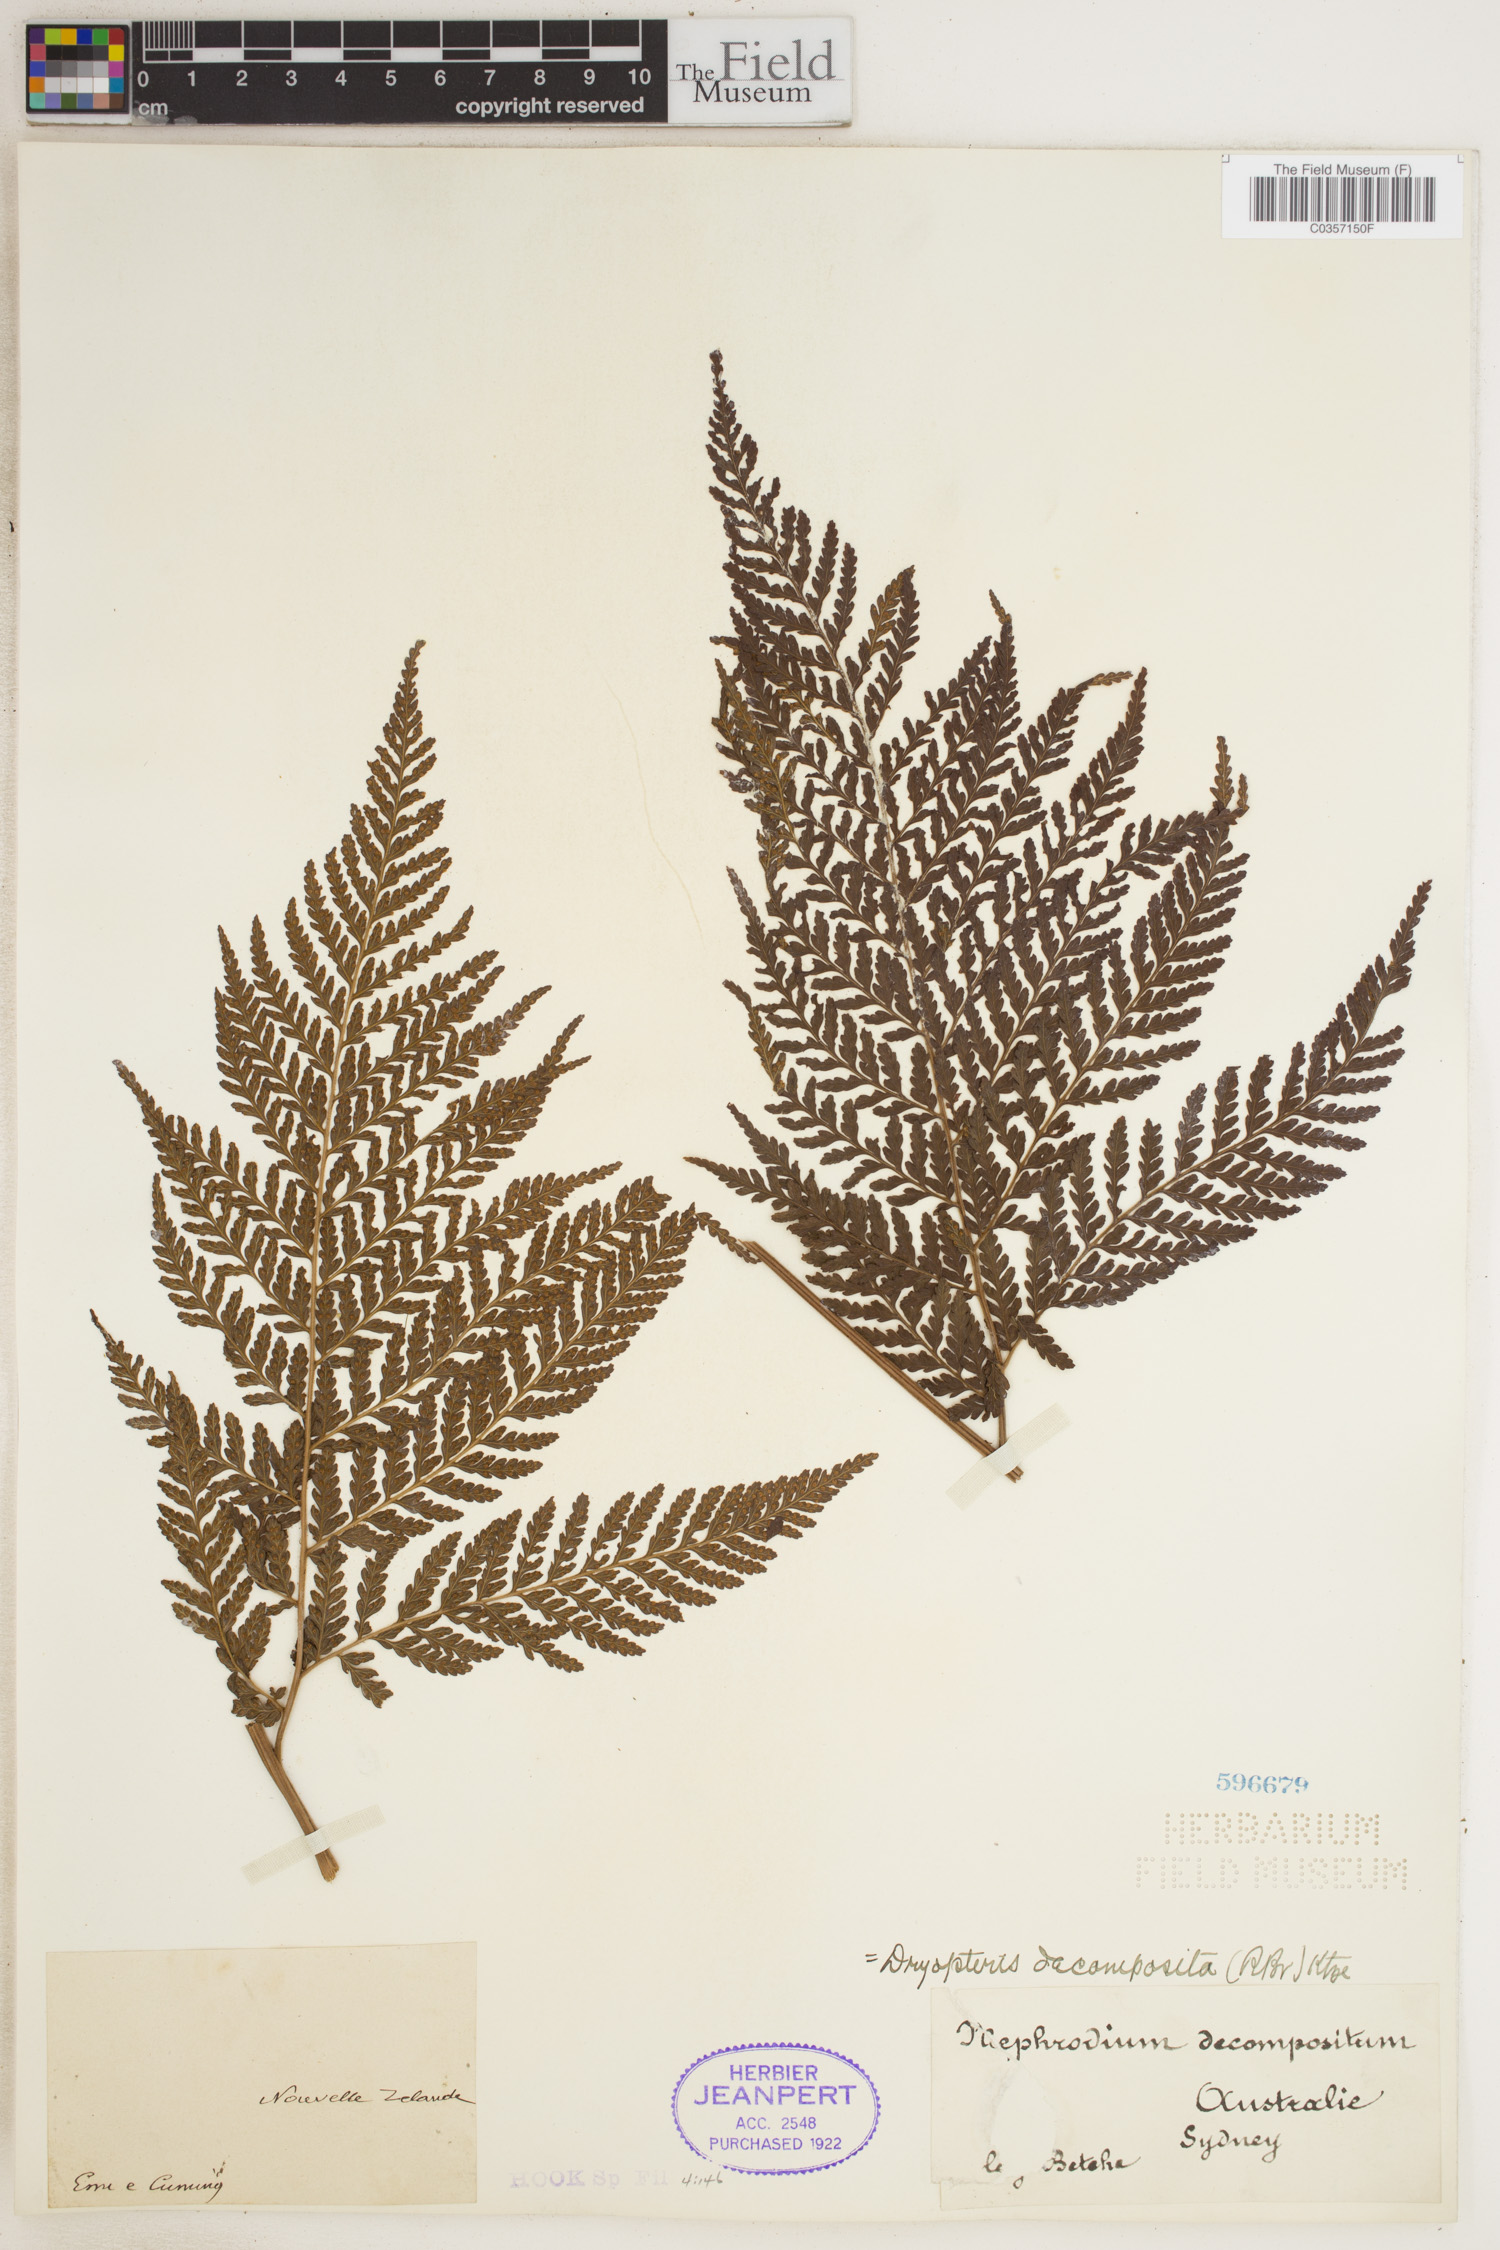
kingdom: Plantae
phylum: Tracheophyta
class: Polypodiopsida
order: Polypodiales
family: Dryopteridaceae
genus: Lastreopsis
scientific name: Lastreopsis decomposita
